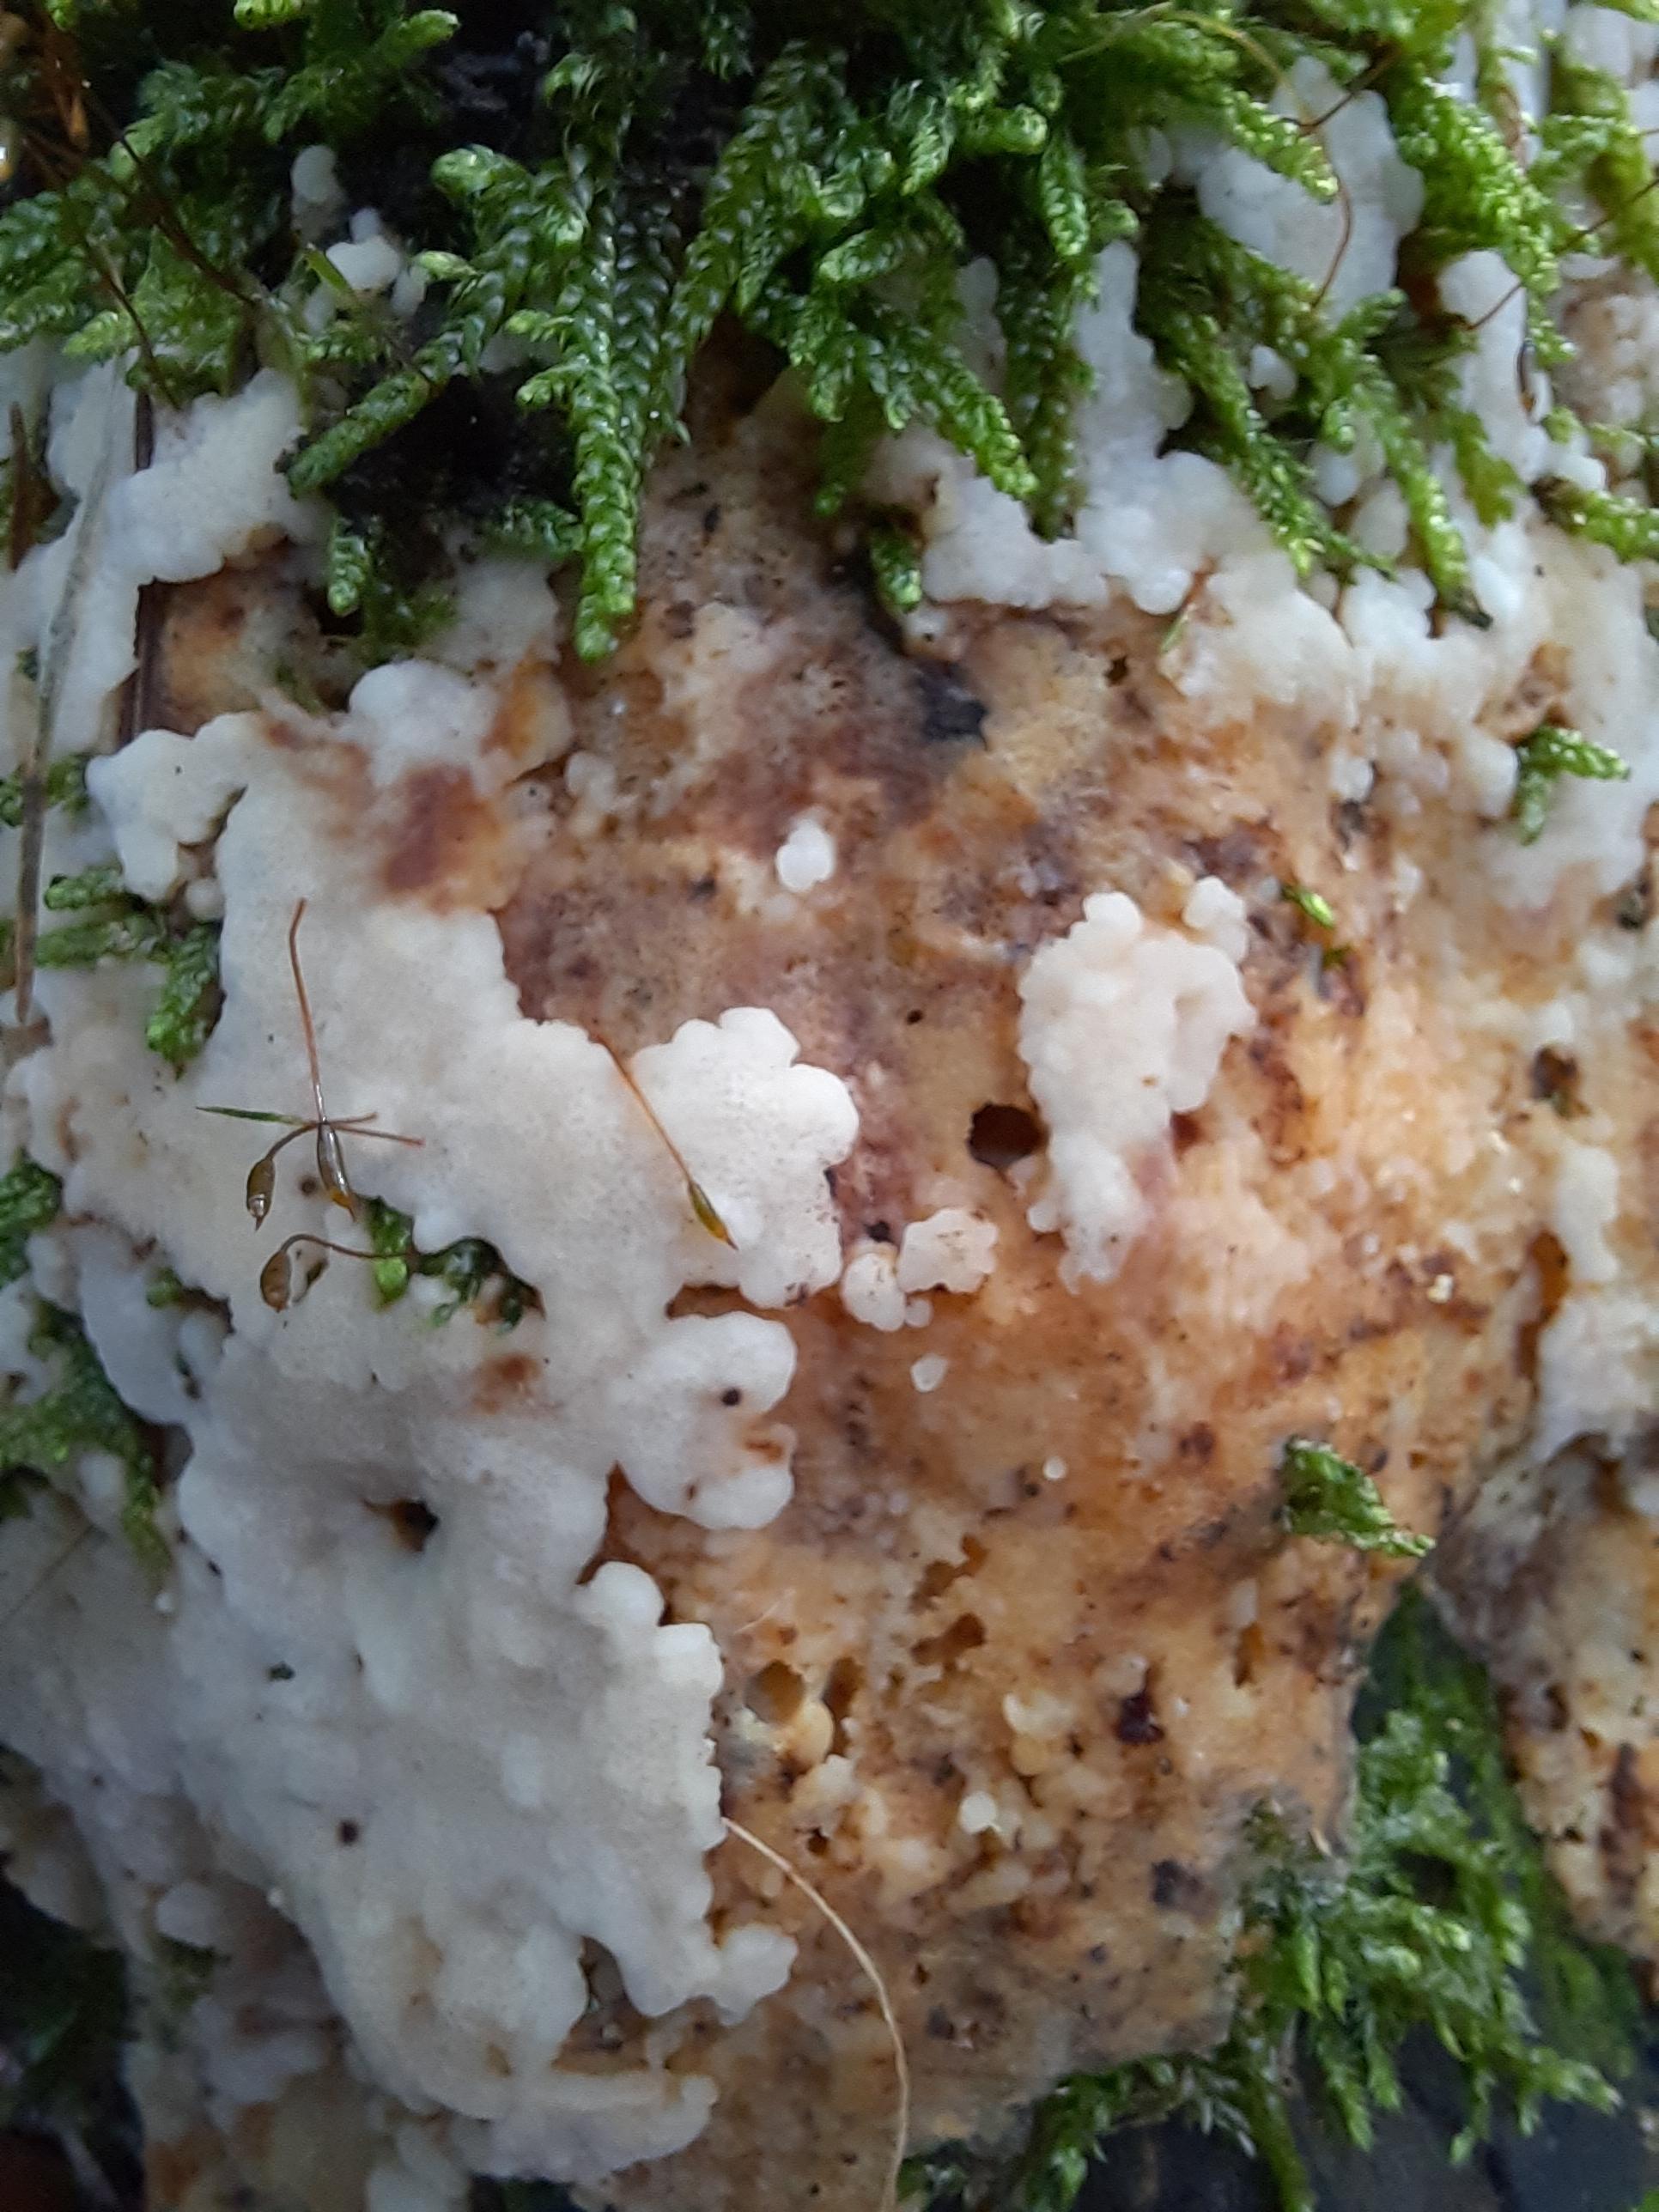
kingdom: Fungi
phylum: Basidiomycota
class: Agaricomycetes
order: Polyporales
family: Meruliaceae
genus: Physisporinus
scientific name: Physisporinus
